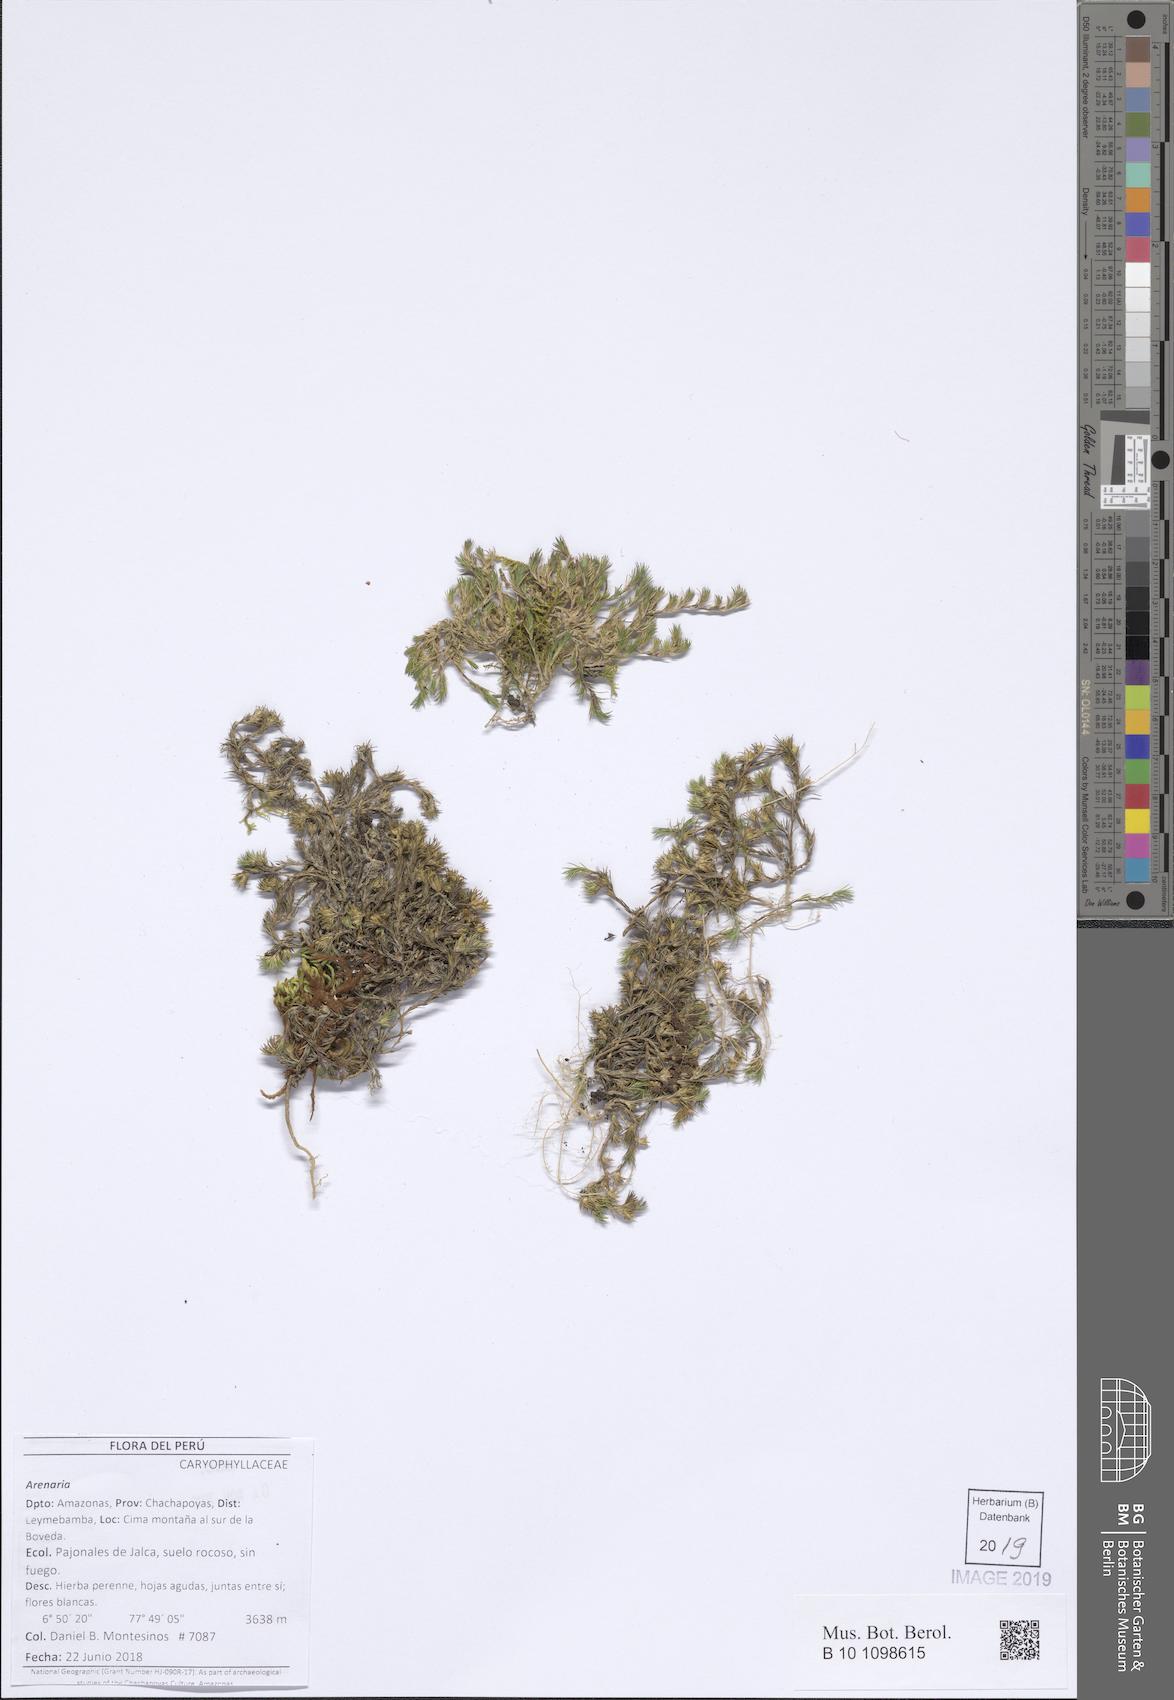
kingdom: Plantae
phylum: Tracheophyta
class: Magnoliopsida
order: Caryophyllales
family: Caryophyllaceae
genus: Arenaria
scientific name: Arenaria
